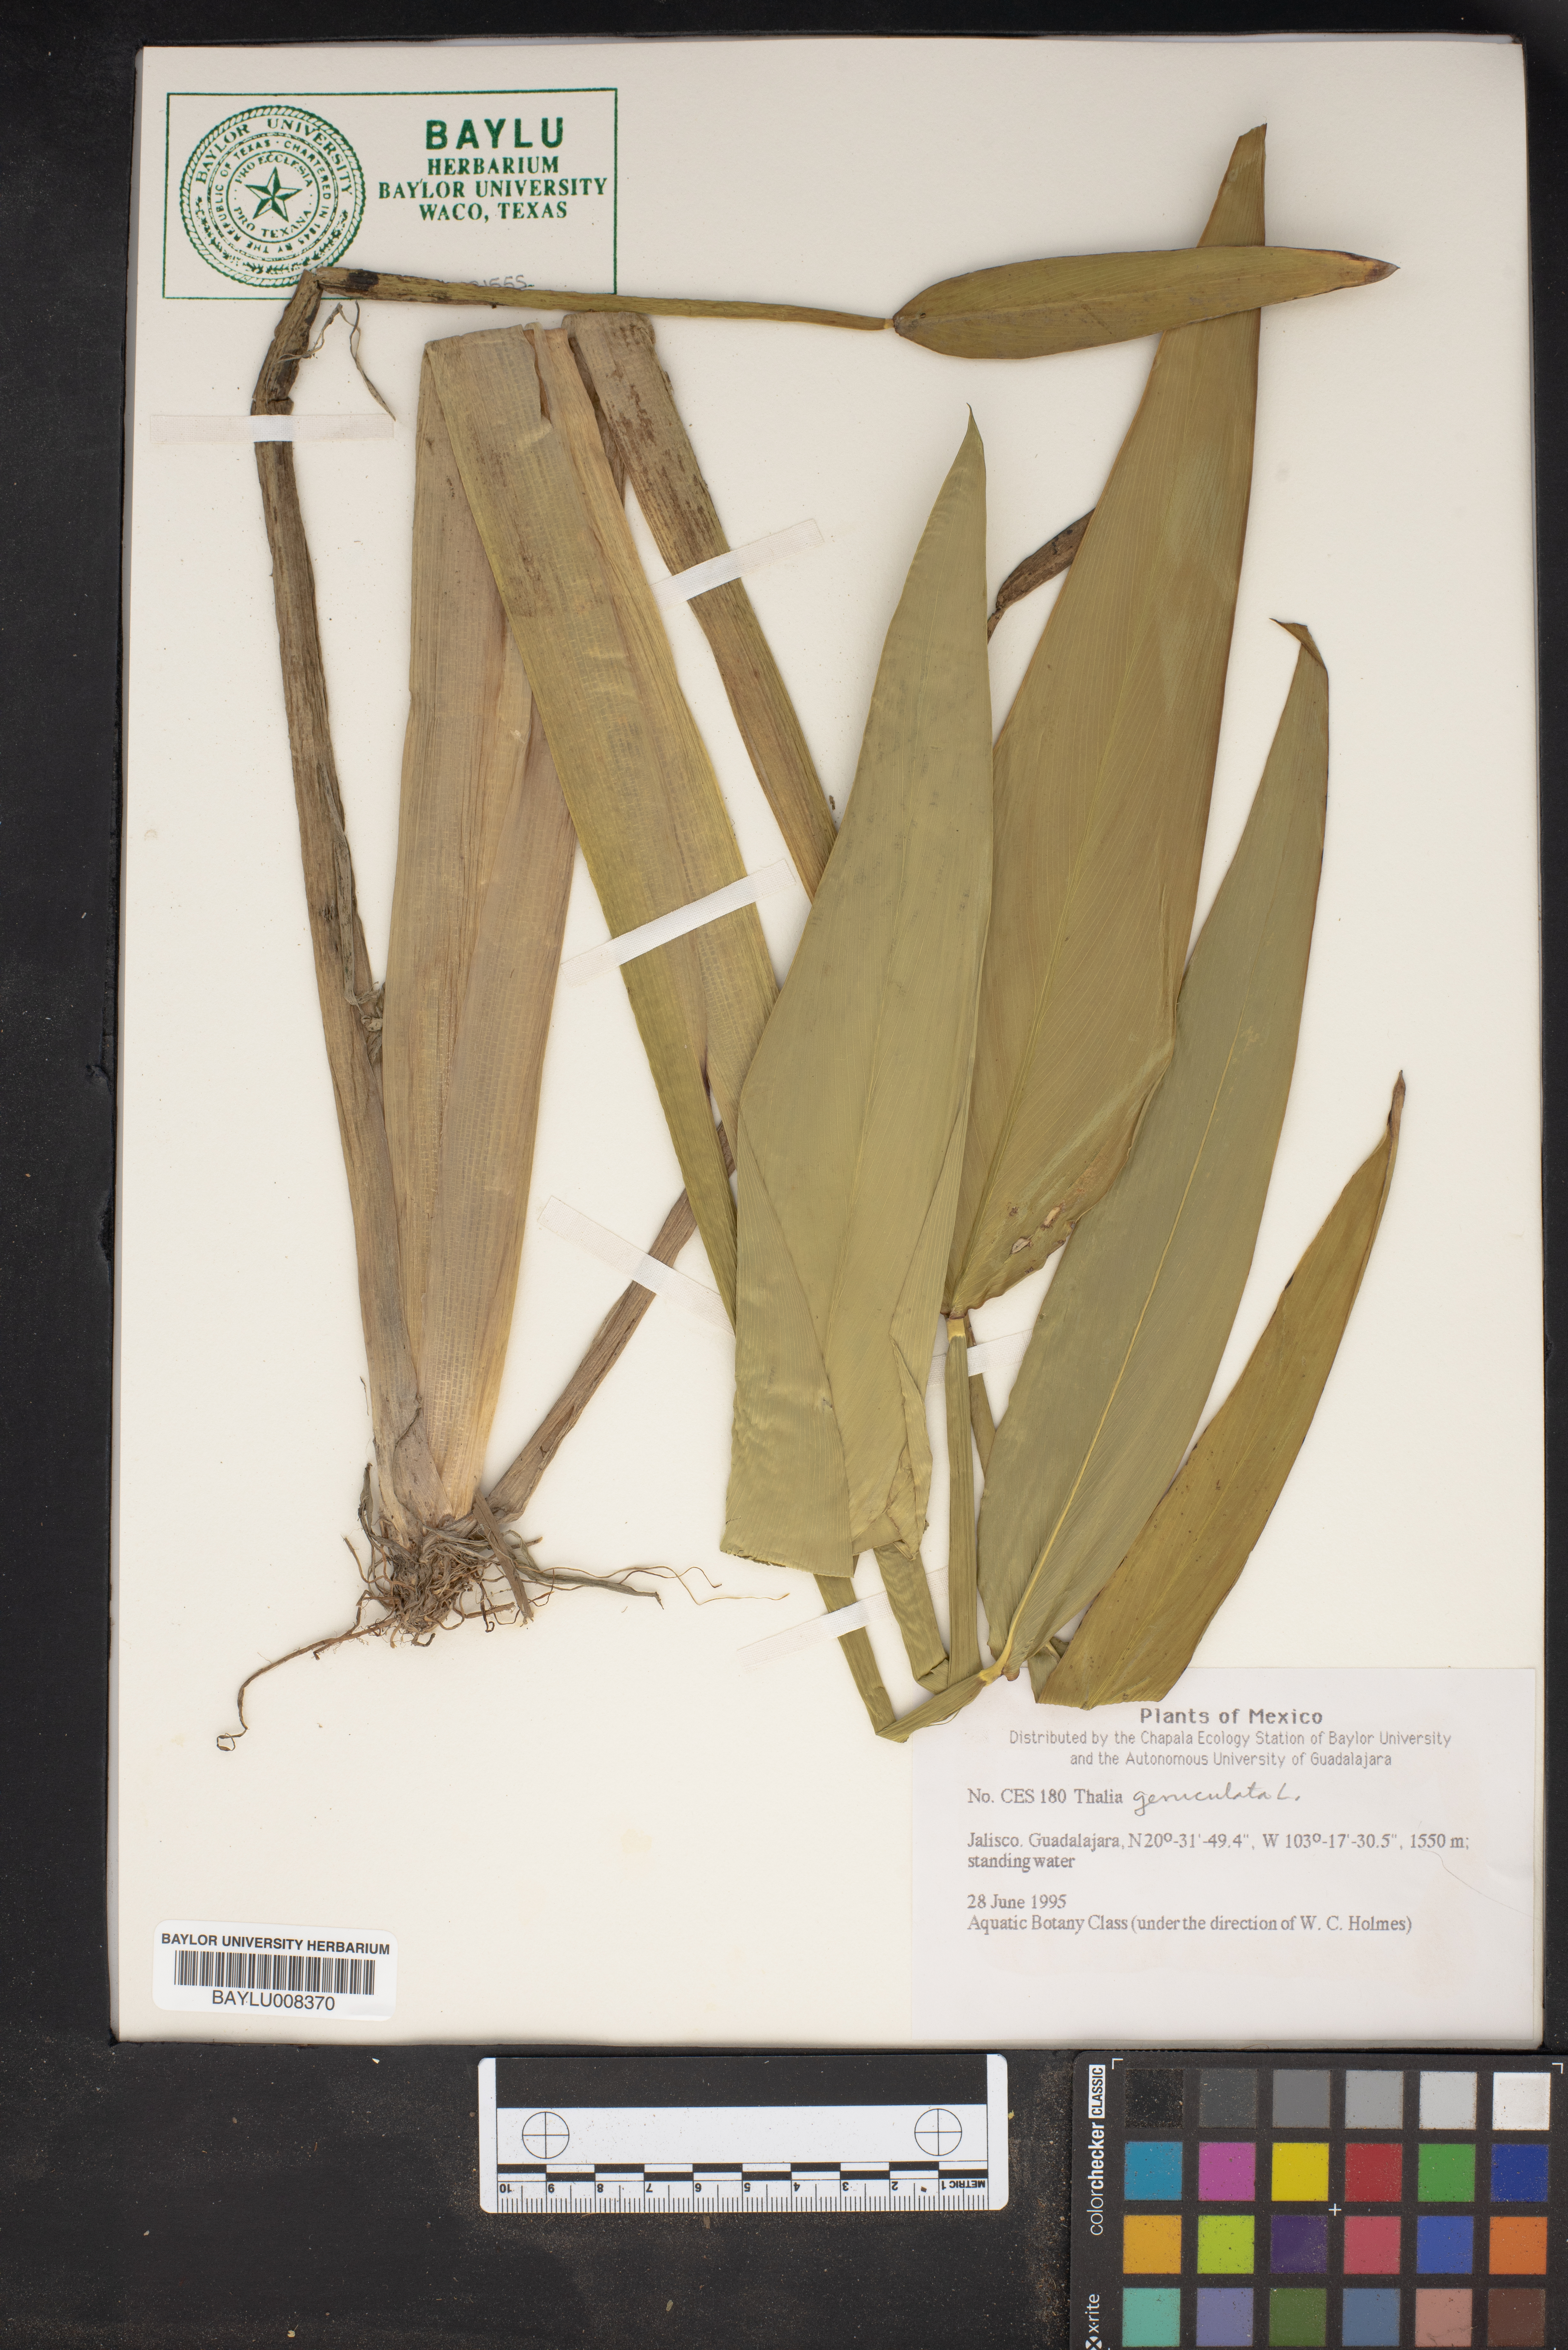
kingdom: Plantae
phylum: Tracheophyta
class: Liliopsida
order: Zingiberales
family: Marantaceae
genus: Thalia
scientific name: Thalia geniculata
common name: Arrowroot
